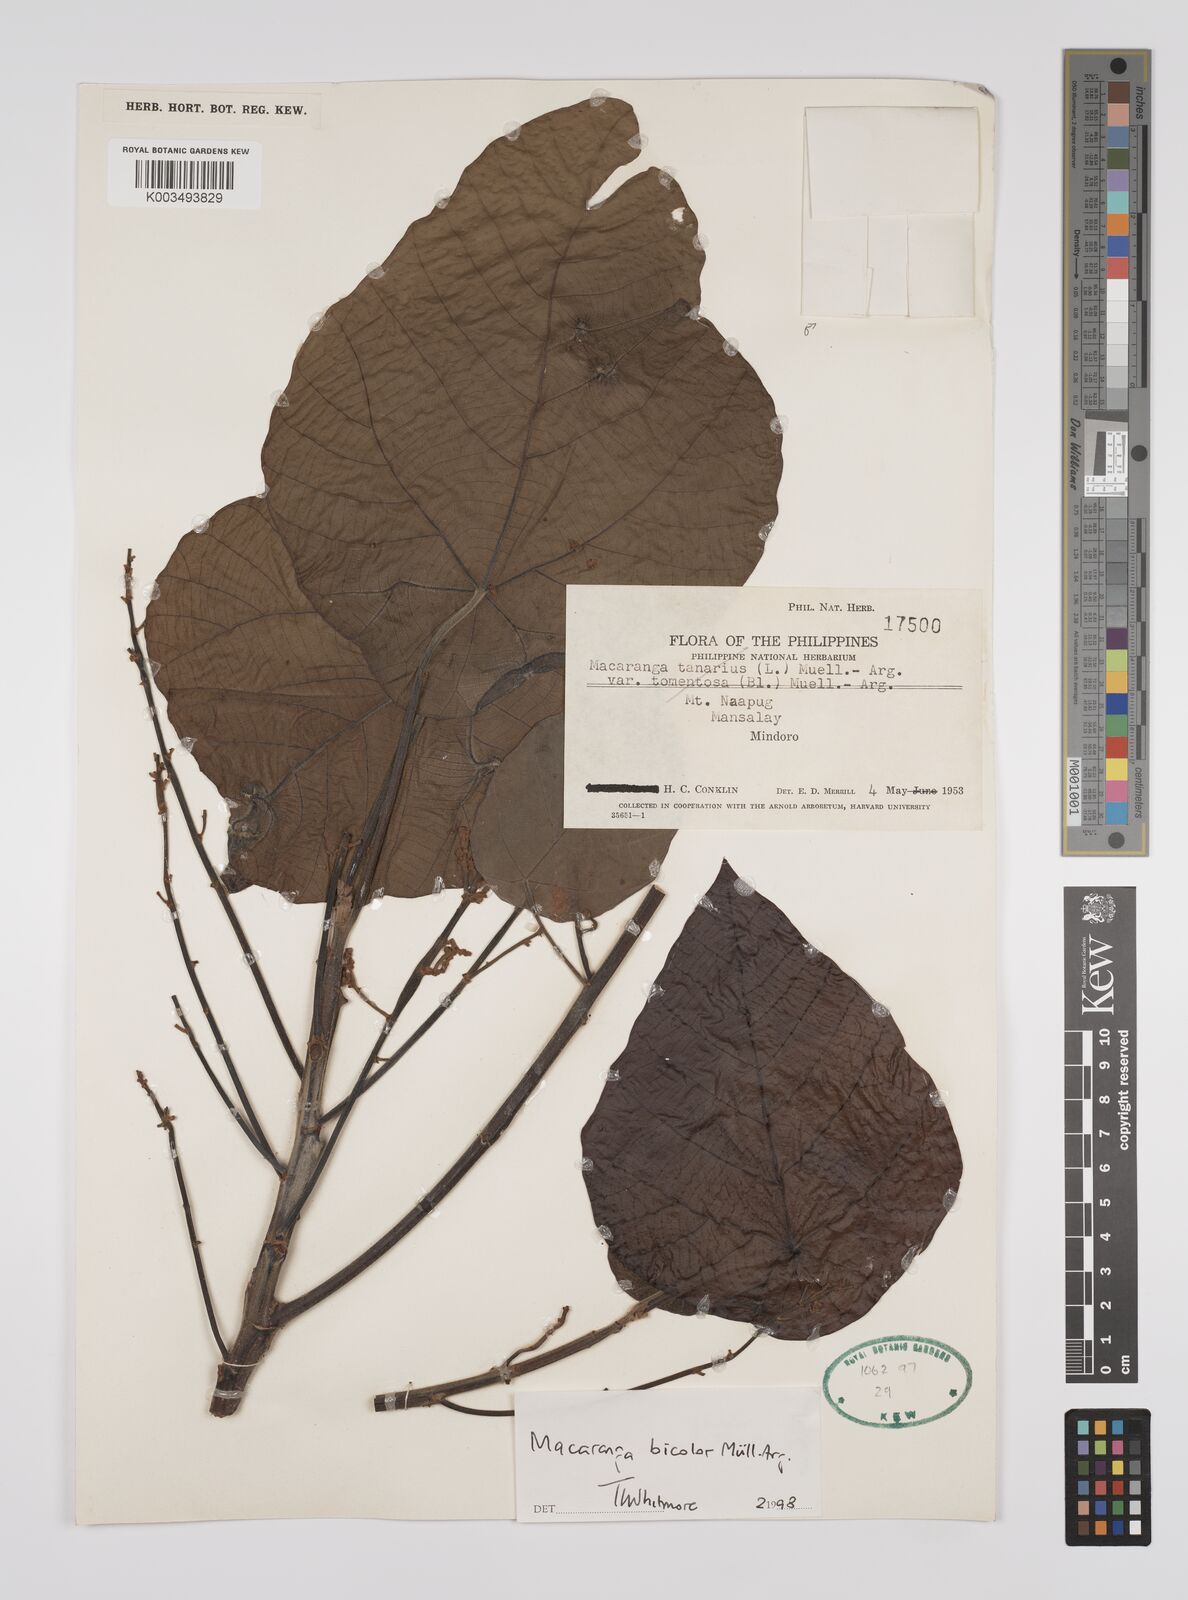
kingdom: Plantae
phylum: Tracheophyta
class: Magnoliopsida
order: Malpighiales
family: Euphorbiaceae
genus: Macaranga
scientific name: Macaranga bicolor
